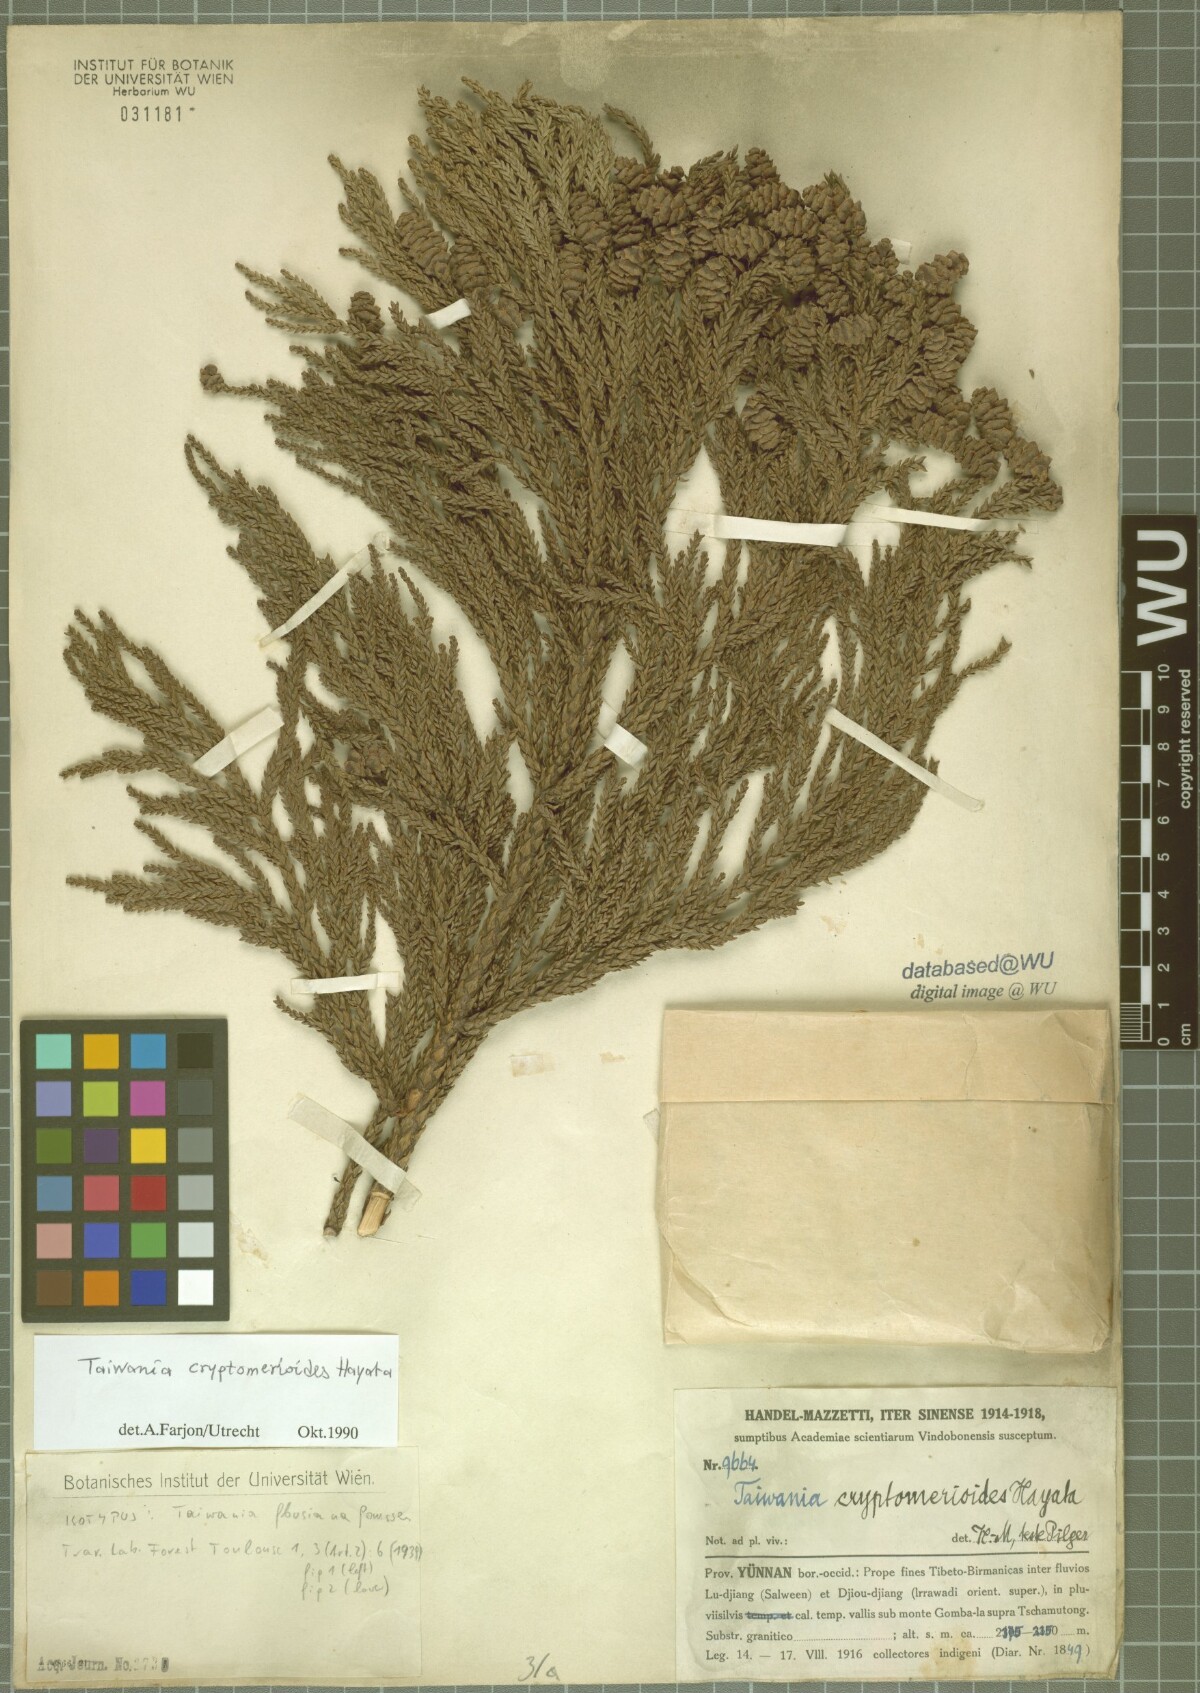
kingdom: Plantae
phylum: Tracheophyta
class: Pinopsida
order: Pinales
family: Cupressaceae
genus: Taiwania
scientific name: Taiwania cryptomerioides
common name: Coffin tree
